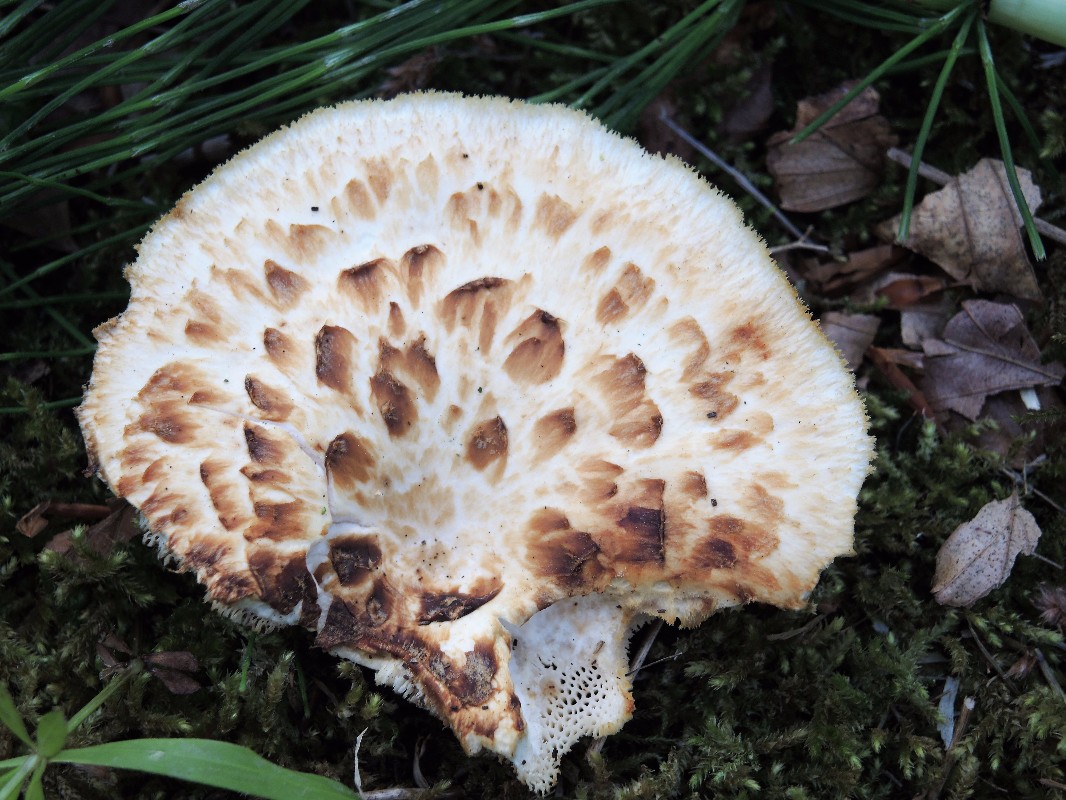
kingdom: Fungi
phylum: Basidiomycota
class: Agaricomycetes
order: Polyporales
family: Polyporaceae
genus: Polyporus
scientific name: Polyporus tuberaster
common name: knoldet stilkporesvamp
